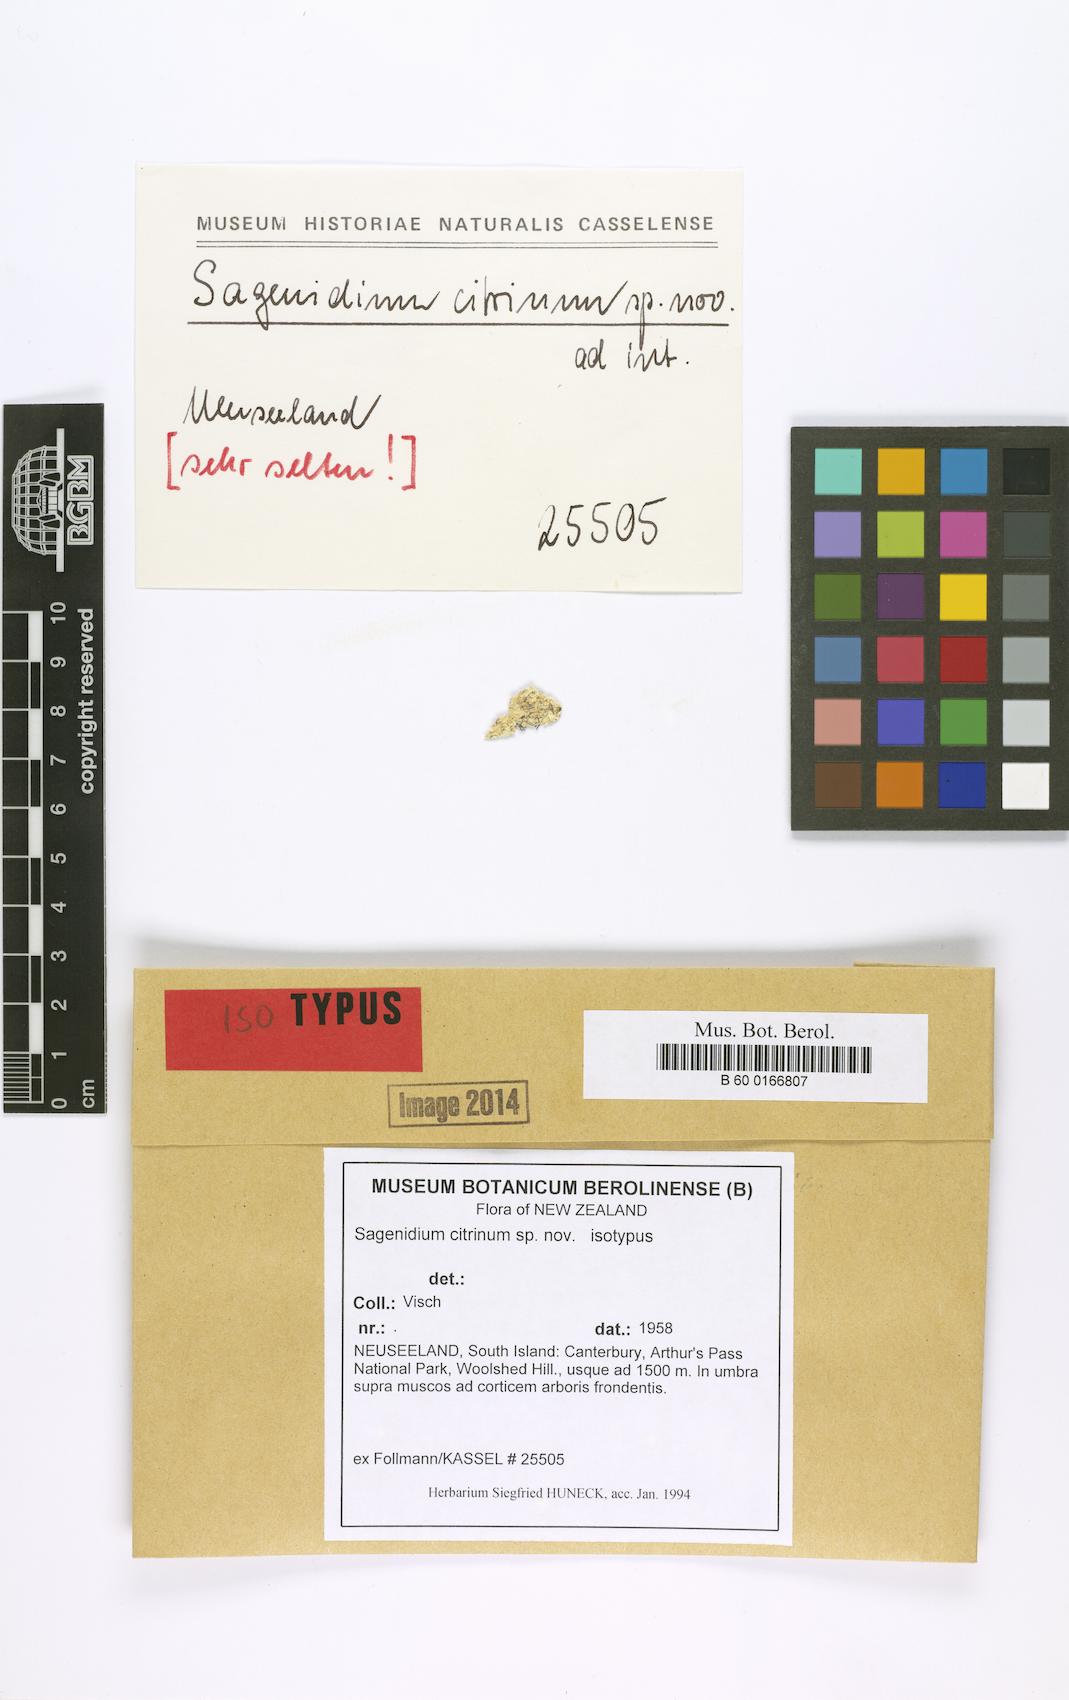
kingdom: Fungi
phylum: Ascomycota
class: Arthoniomycetes
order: Arthoniales
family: Roccellaceae
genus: Lecanactis
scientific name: Lecanactis citrina
